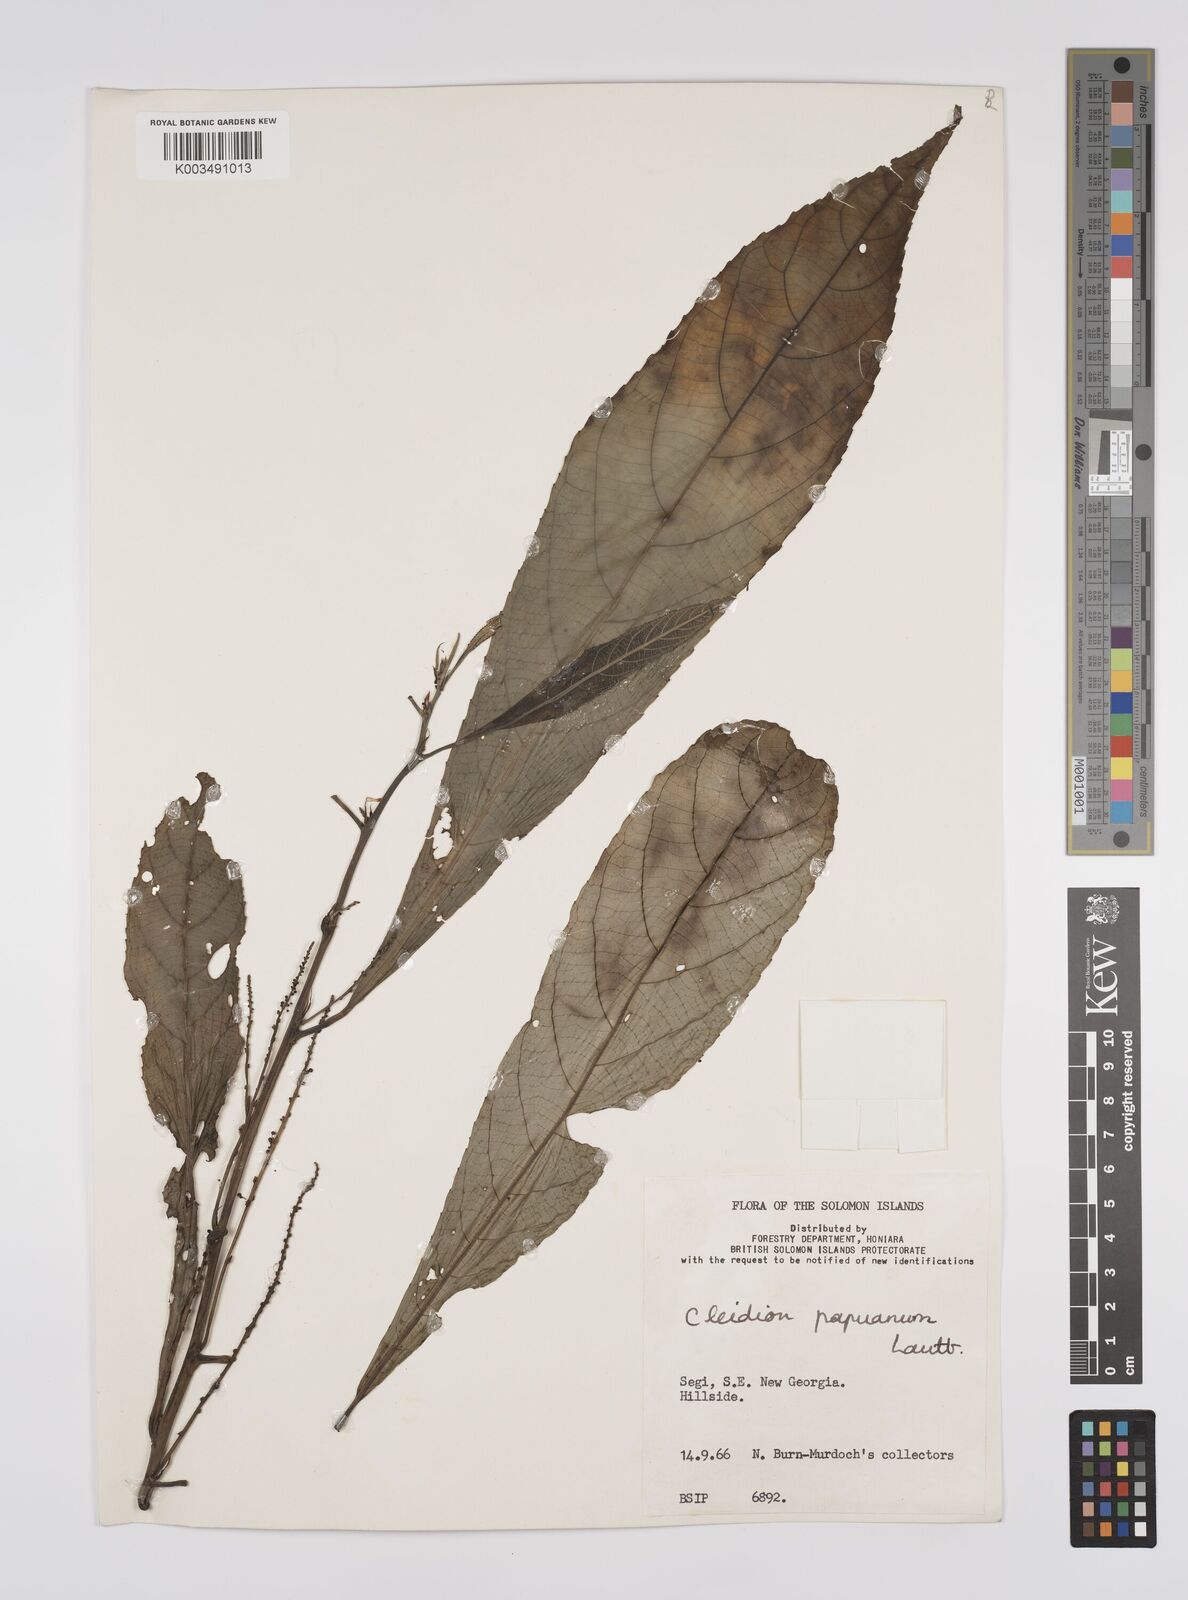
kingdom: Plantae
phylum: Tracheophyta
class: Magnoliopsida
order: Malpighiales
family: Euphorbiaceae
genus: Cleidion
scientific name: Cleidion papuanum
